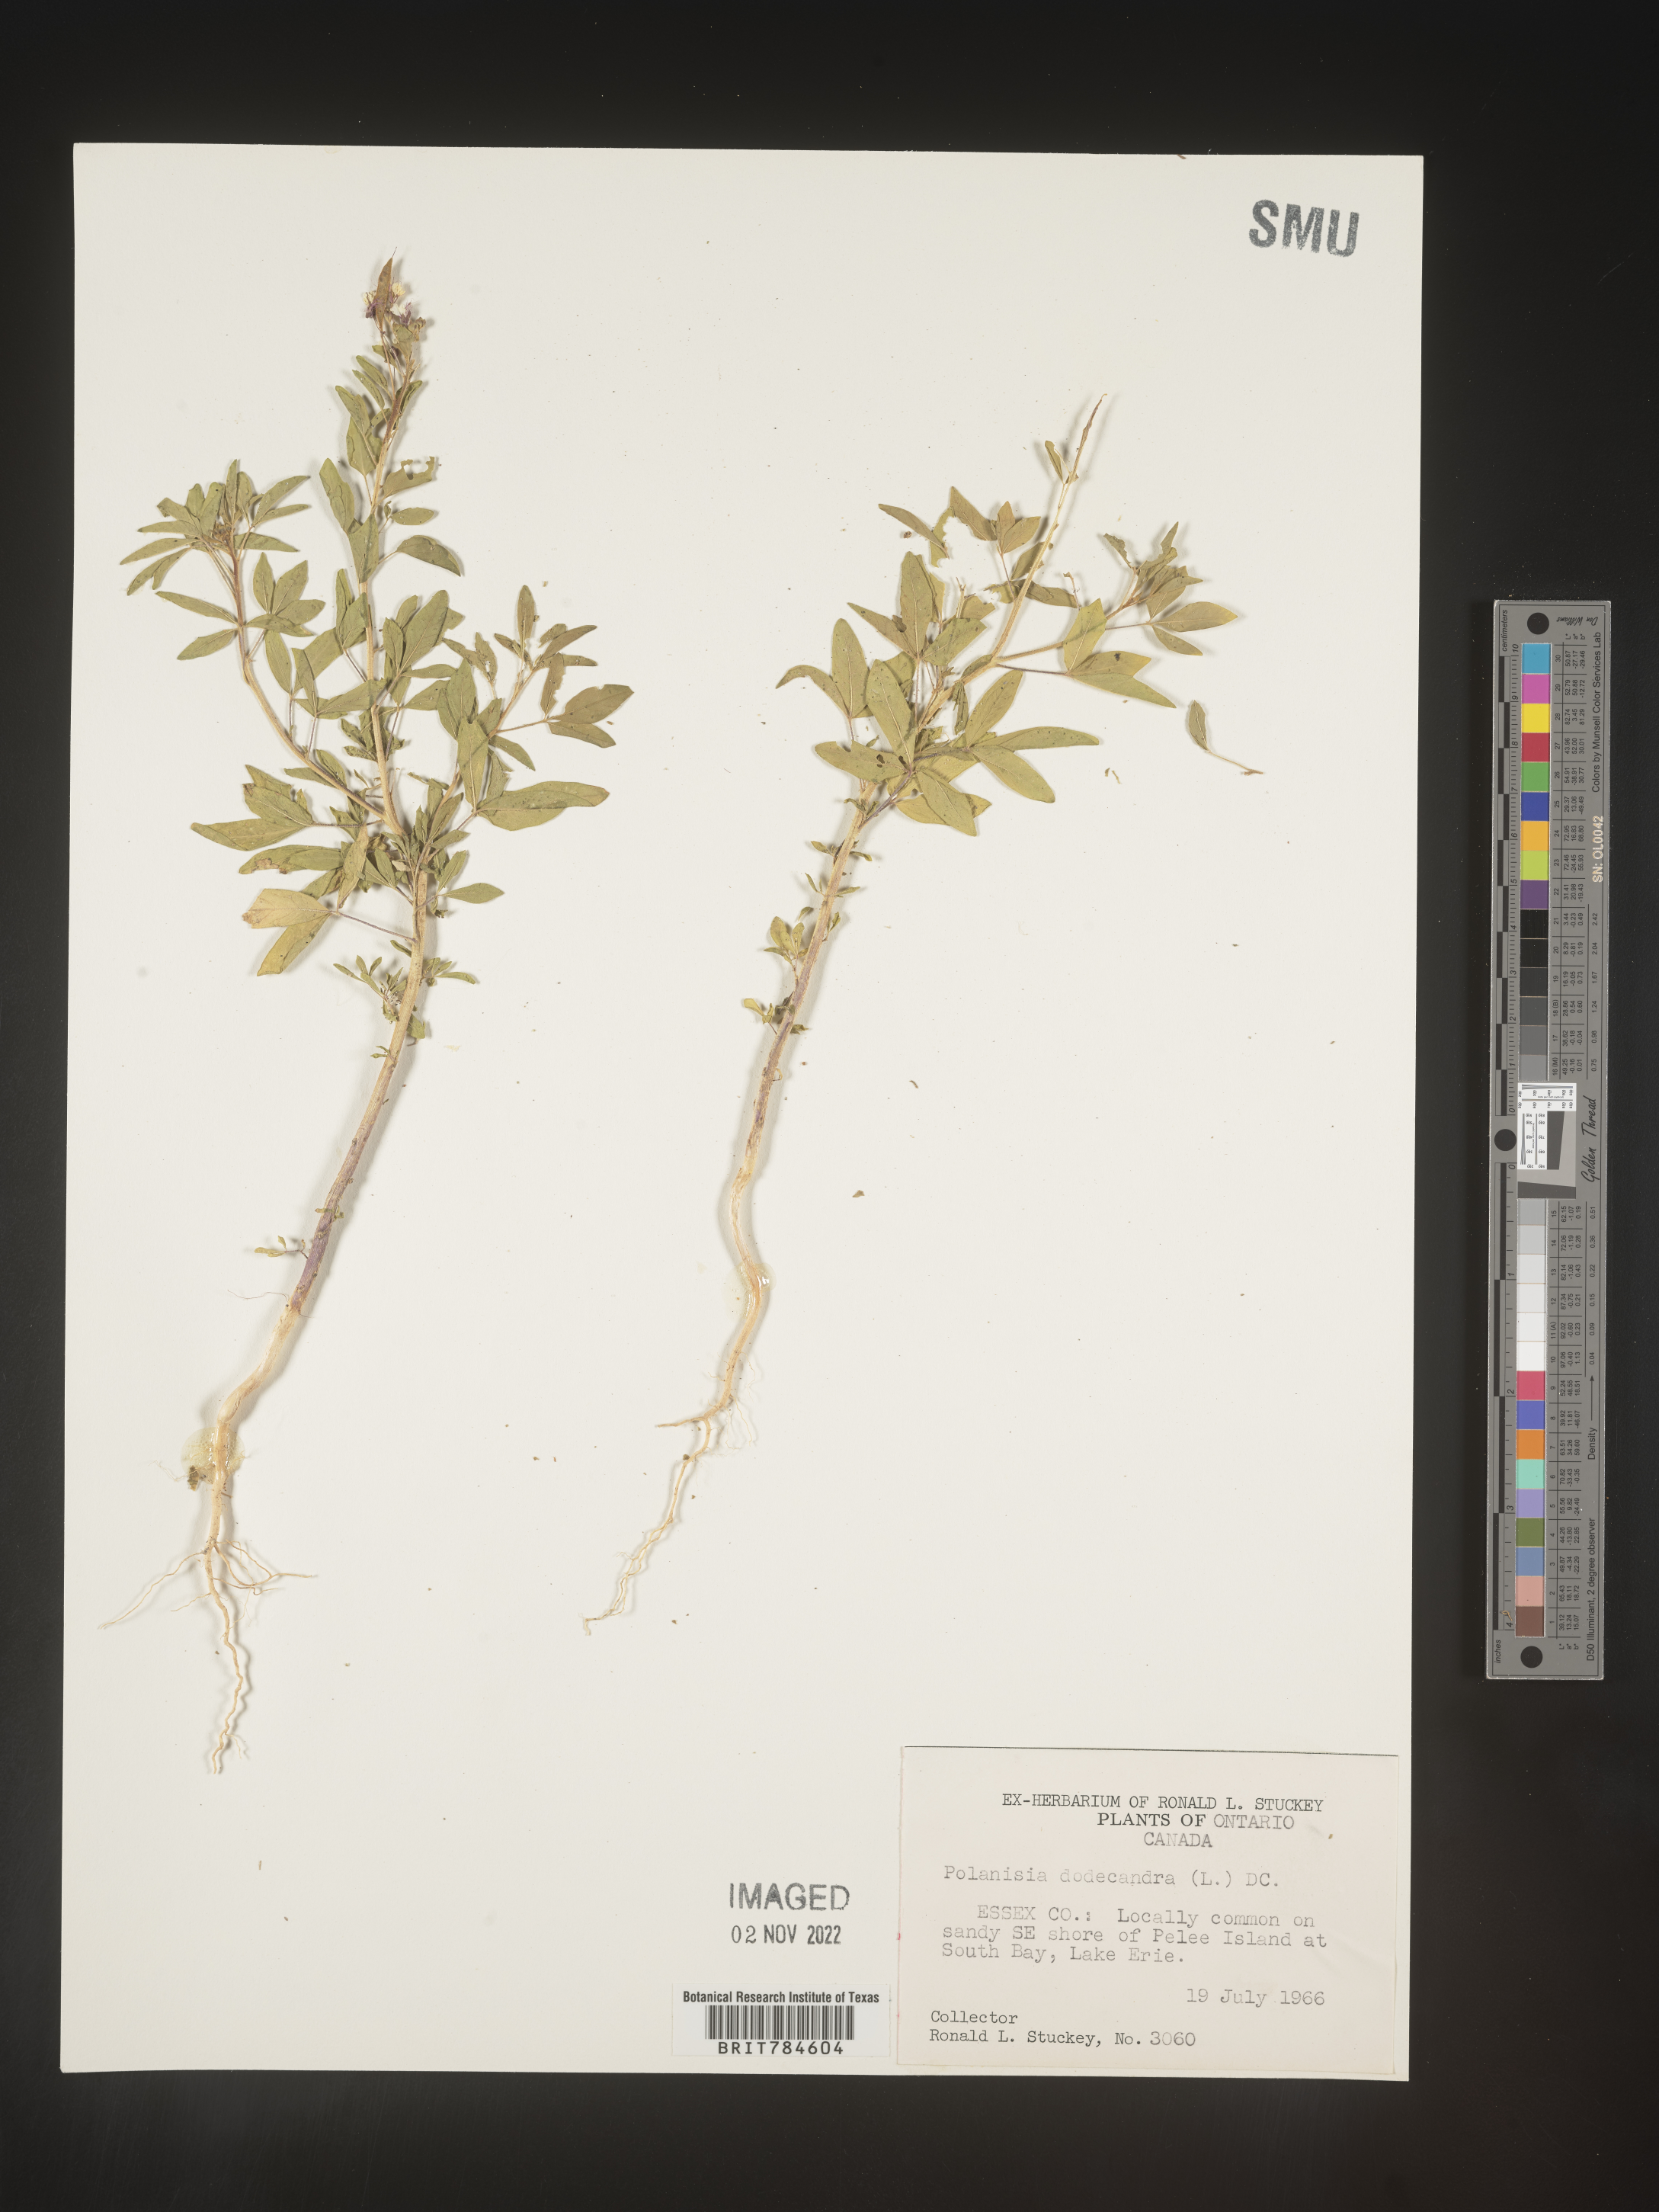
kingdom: Plantae
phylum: Tracheophyta
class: Magnoliopsida
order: Brassicales
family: Cleomaceae
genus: Polanisia
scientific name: Polanisia dodecandra
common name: Clammyweed
